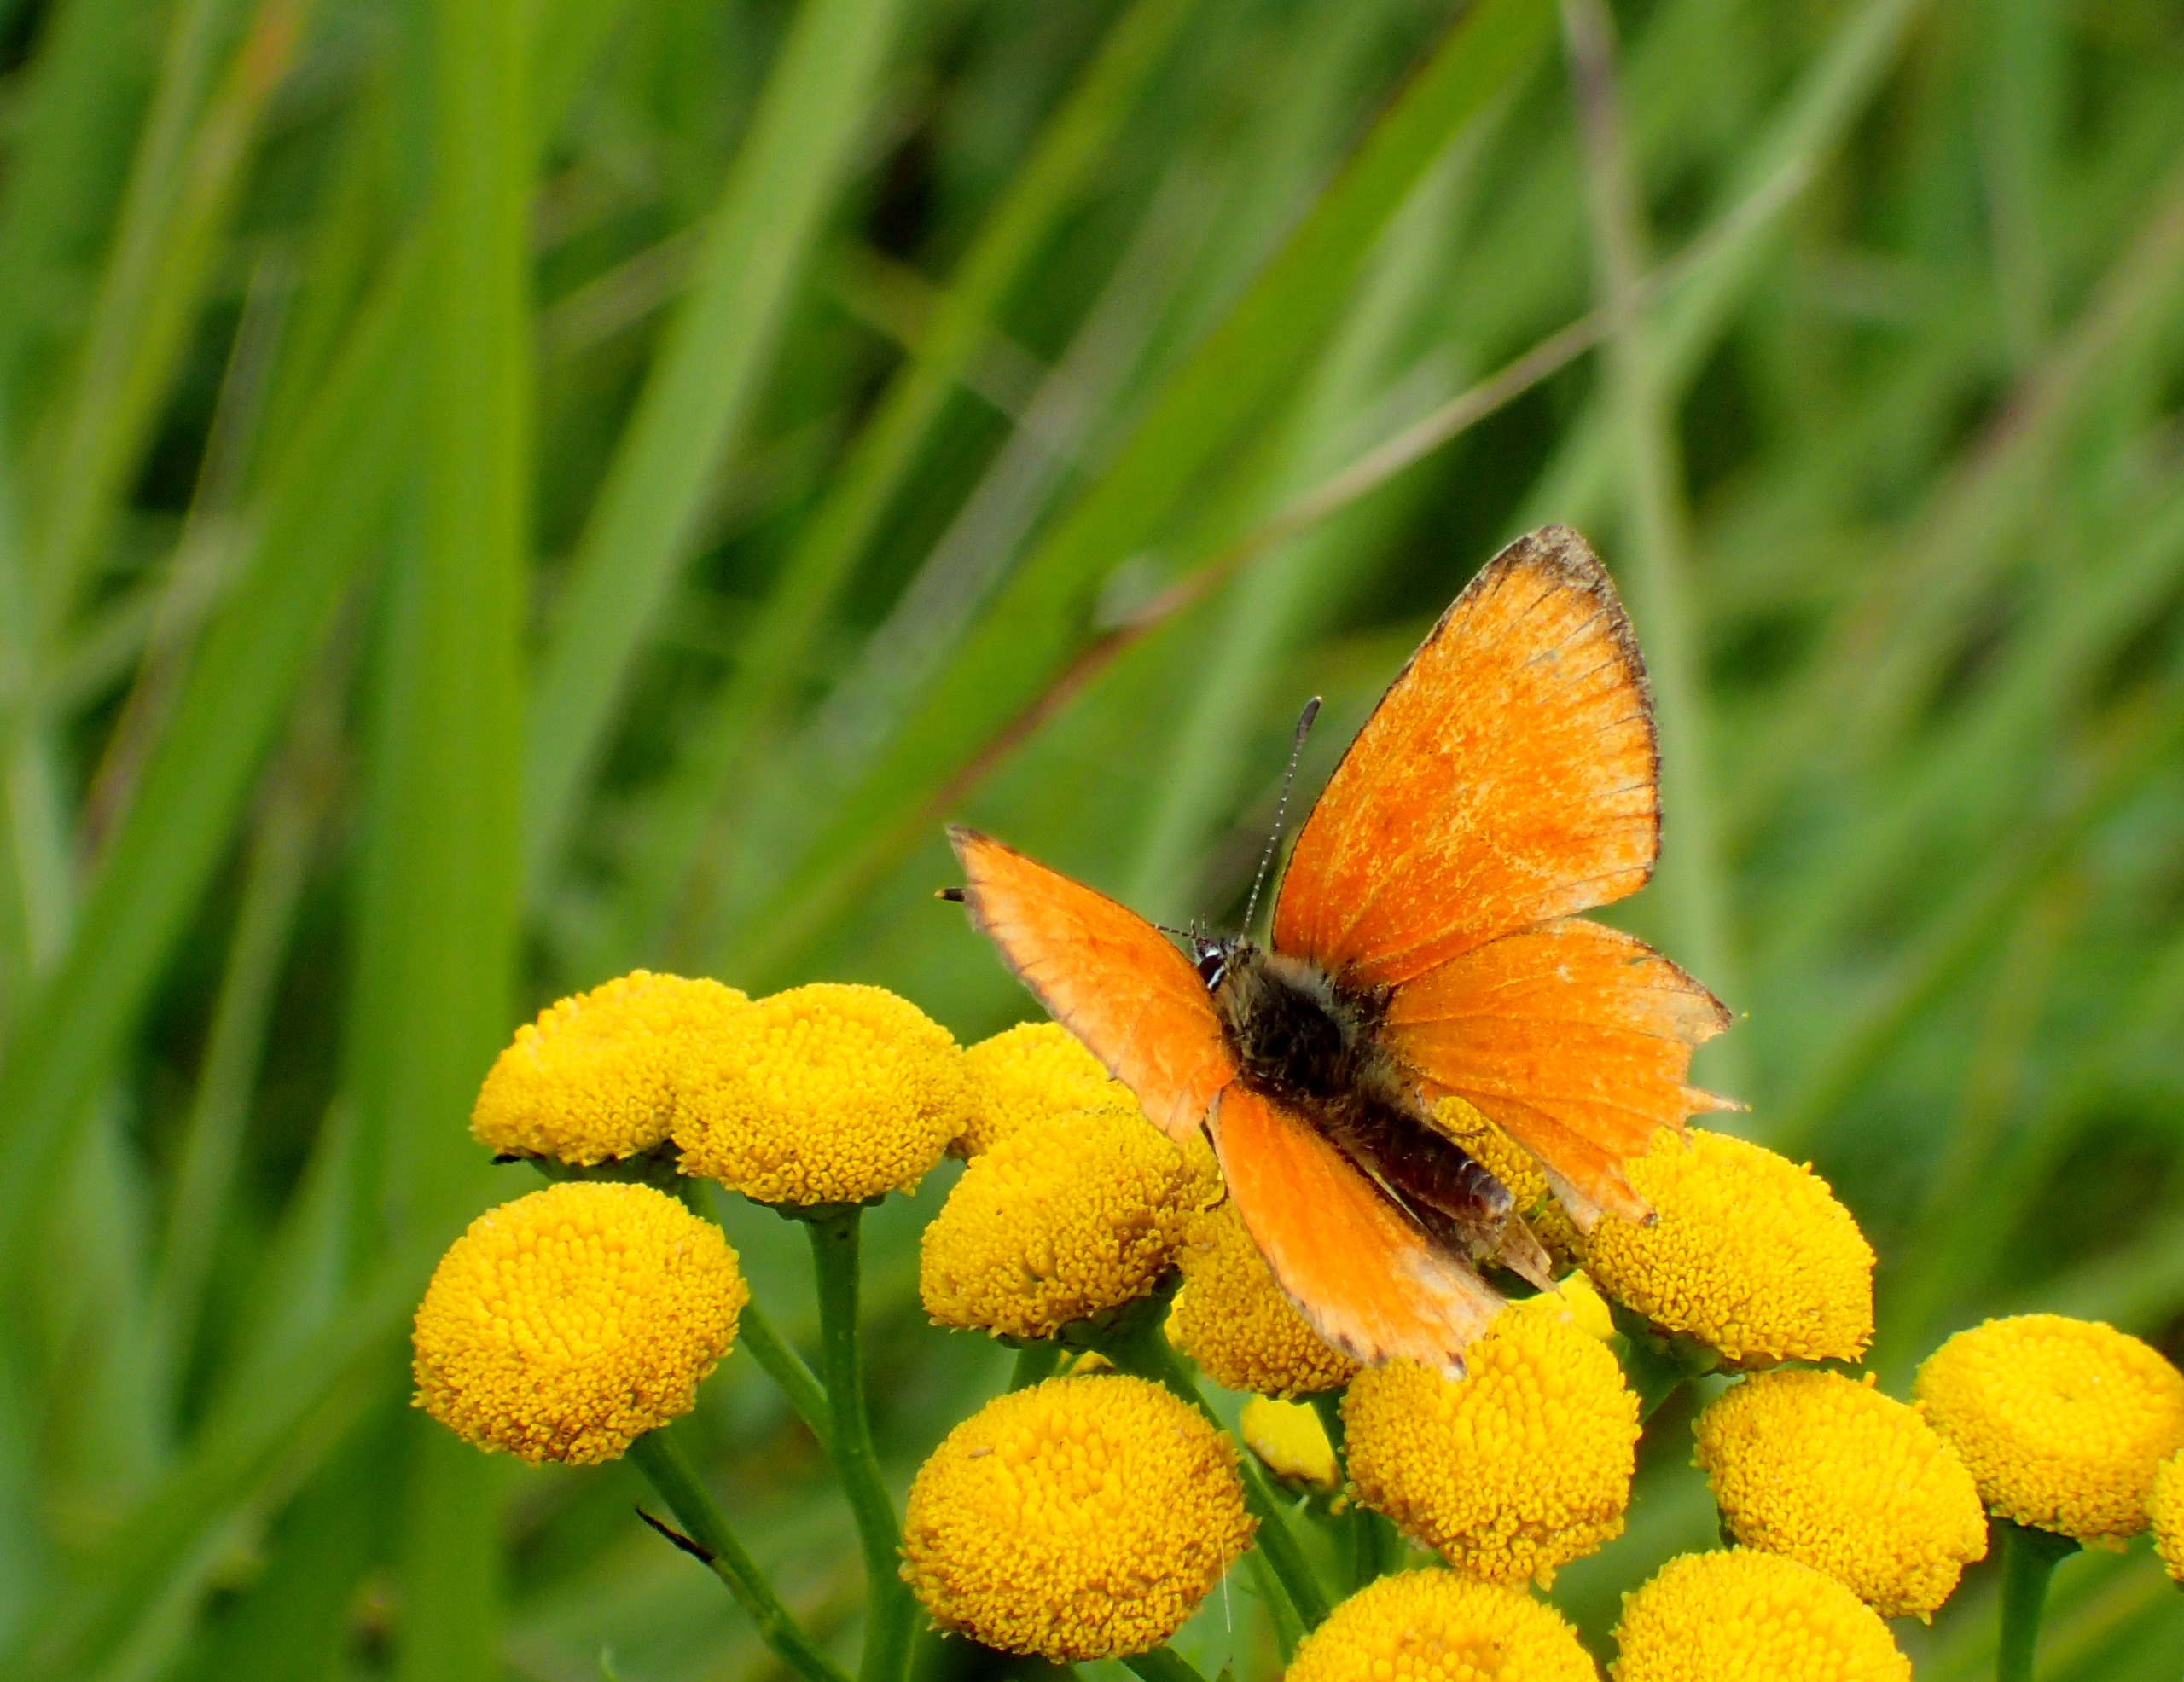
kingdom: Animalia
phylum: Arthropoda
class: Insecta
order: Lepidoptera
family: Lycaenidae
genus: Lycaena
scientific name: Lycaena virgaureae
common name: Dukatsommerfugl
